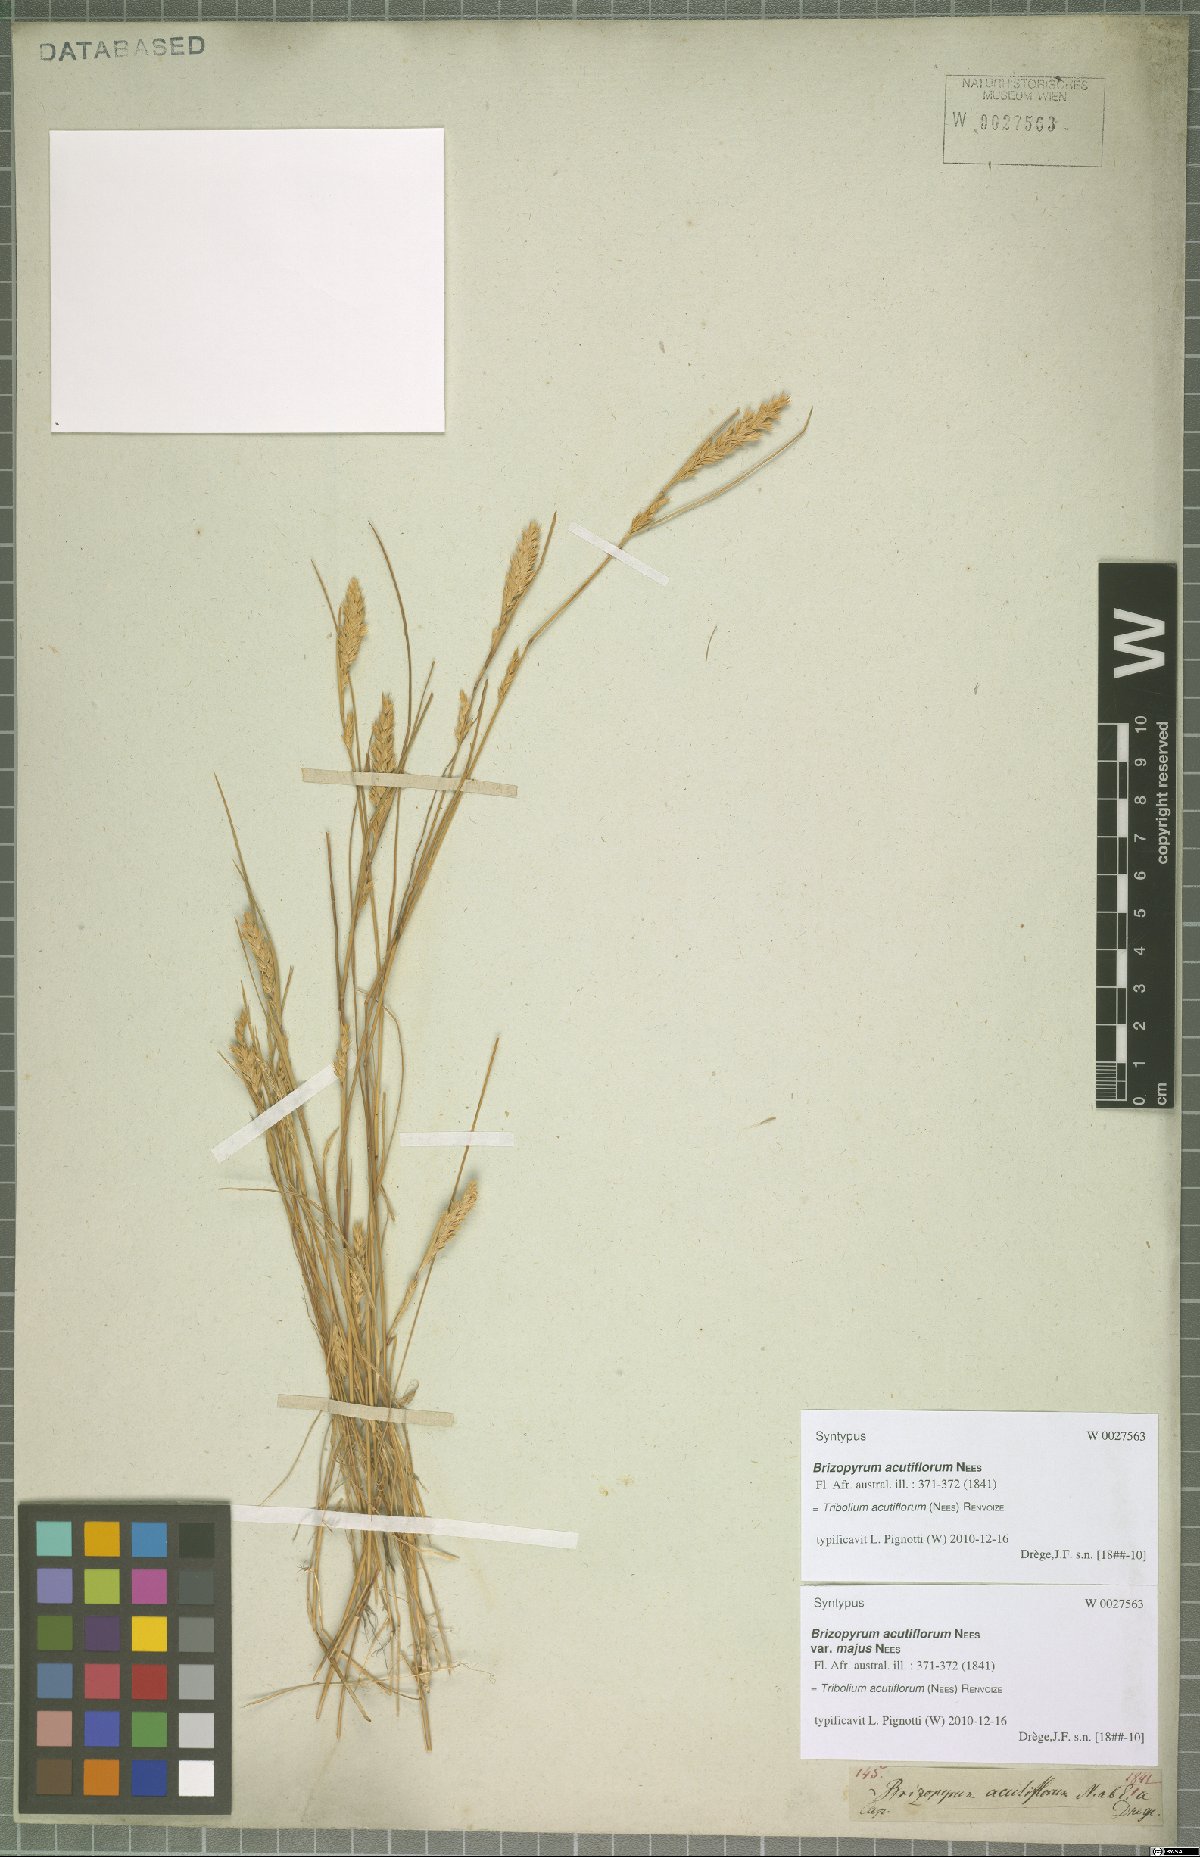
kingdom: Plantae
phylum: Tracheophyta
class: Liliopsida
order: Poales
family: Poaceae
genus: Tribolium
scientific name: Tribolium acutiflorum
